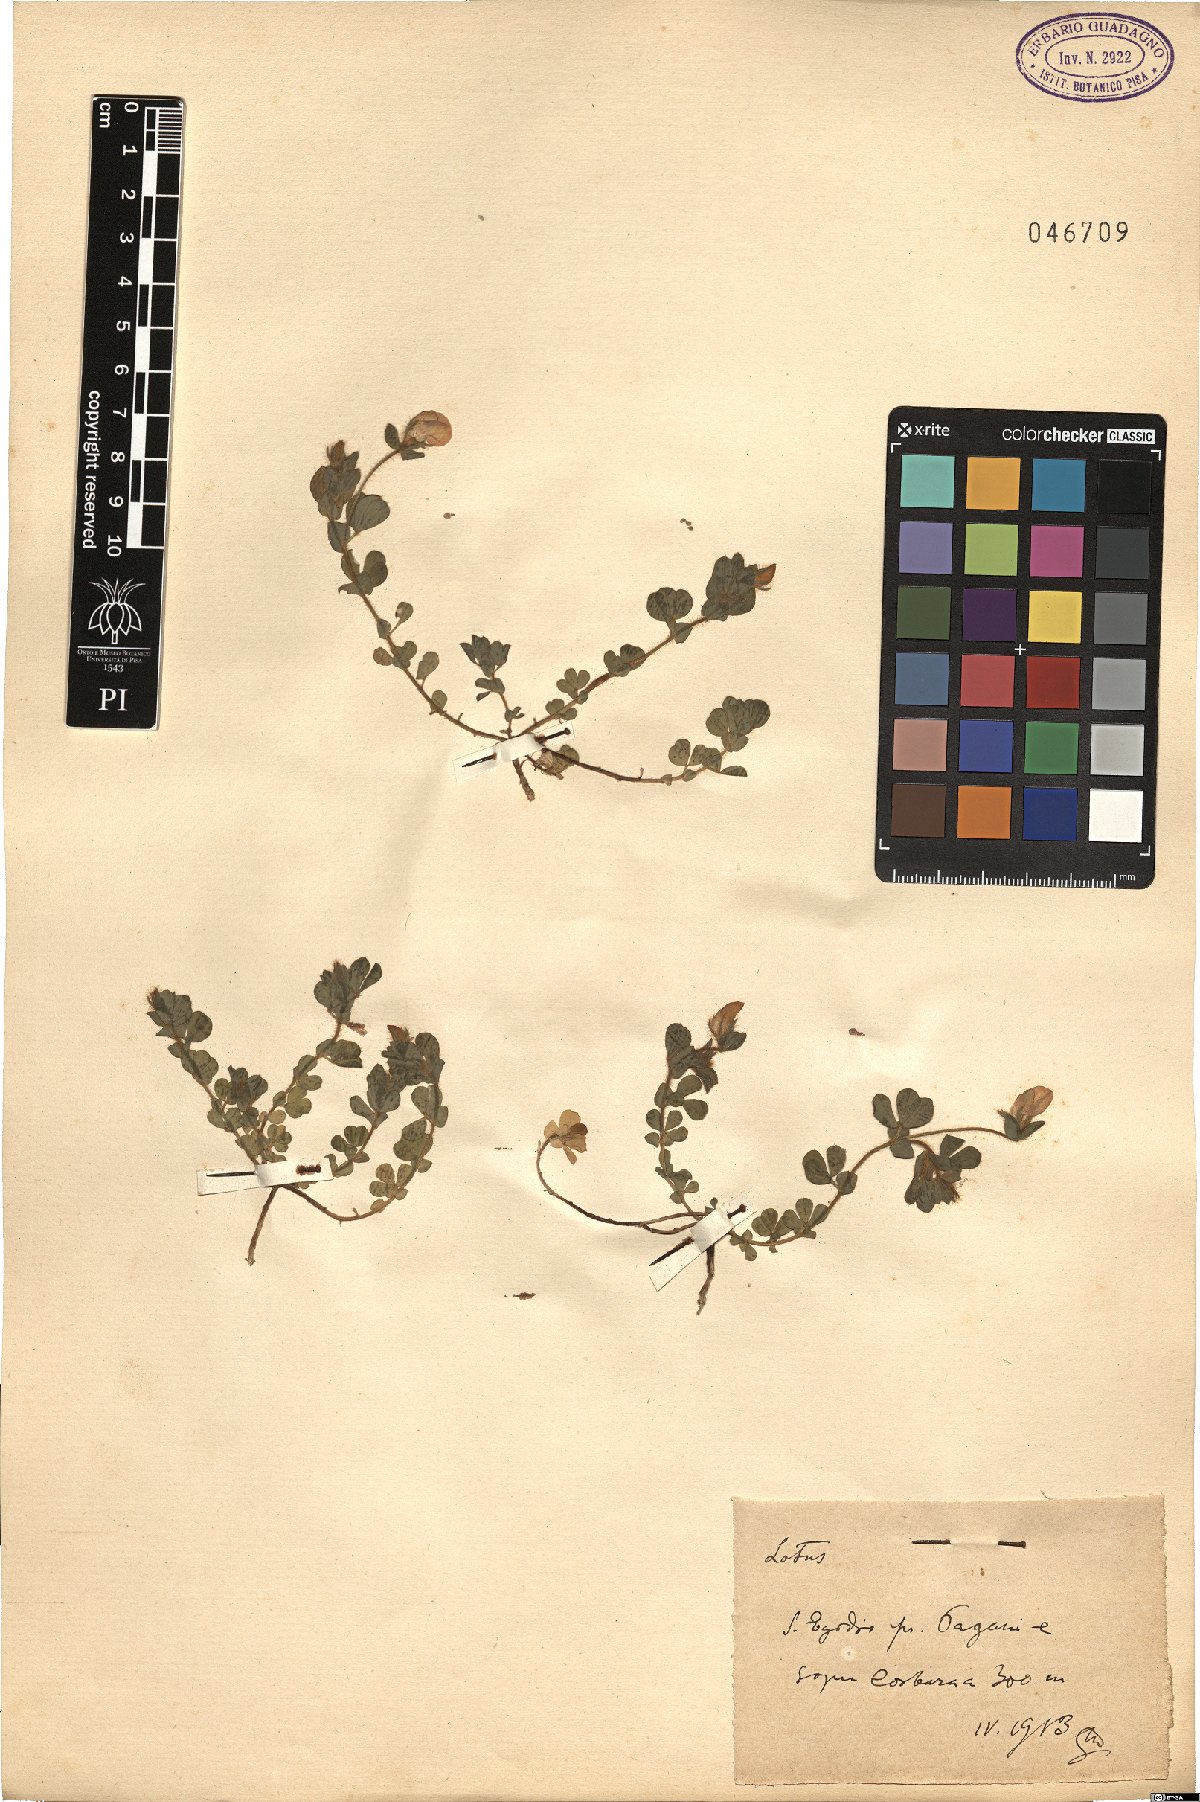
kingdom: Plantae
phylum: Tracheophyta
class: Magnoliopsida
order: Fabales
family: Fabaceae
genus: Lotus
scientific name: Lotus
